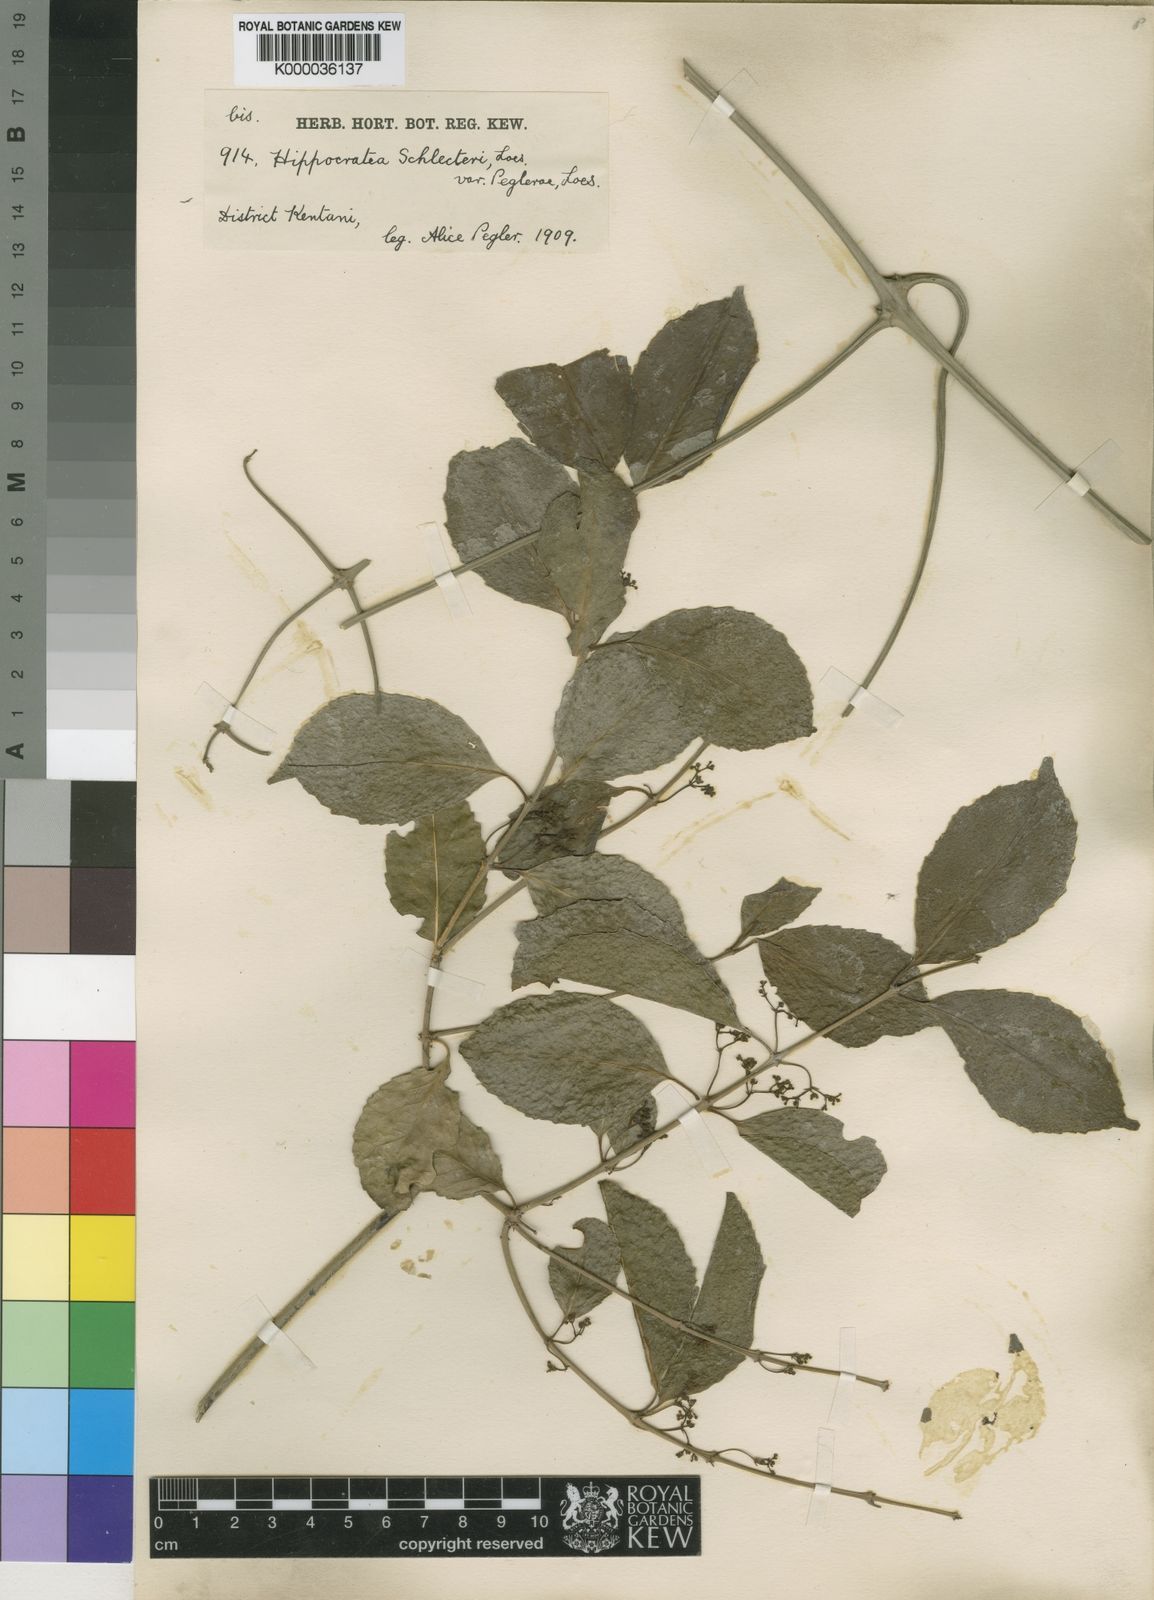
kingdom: Plantae
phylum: Tracheophyta
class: Magnoliopsida
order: Celastrales
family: Celastraceae
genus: Hippocratea
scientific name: Hippocratea
